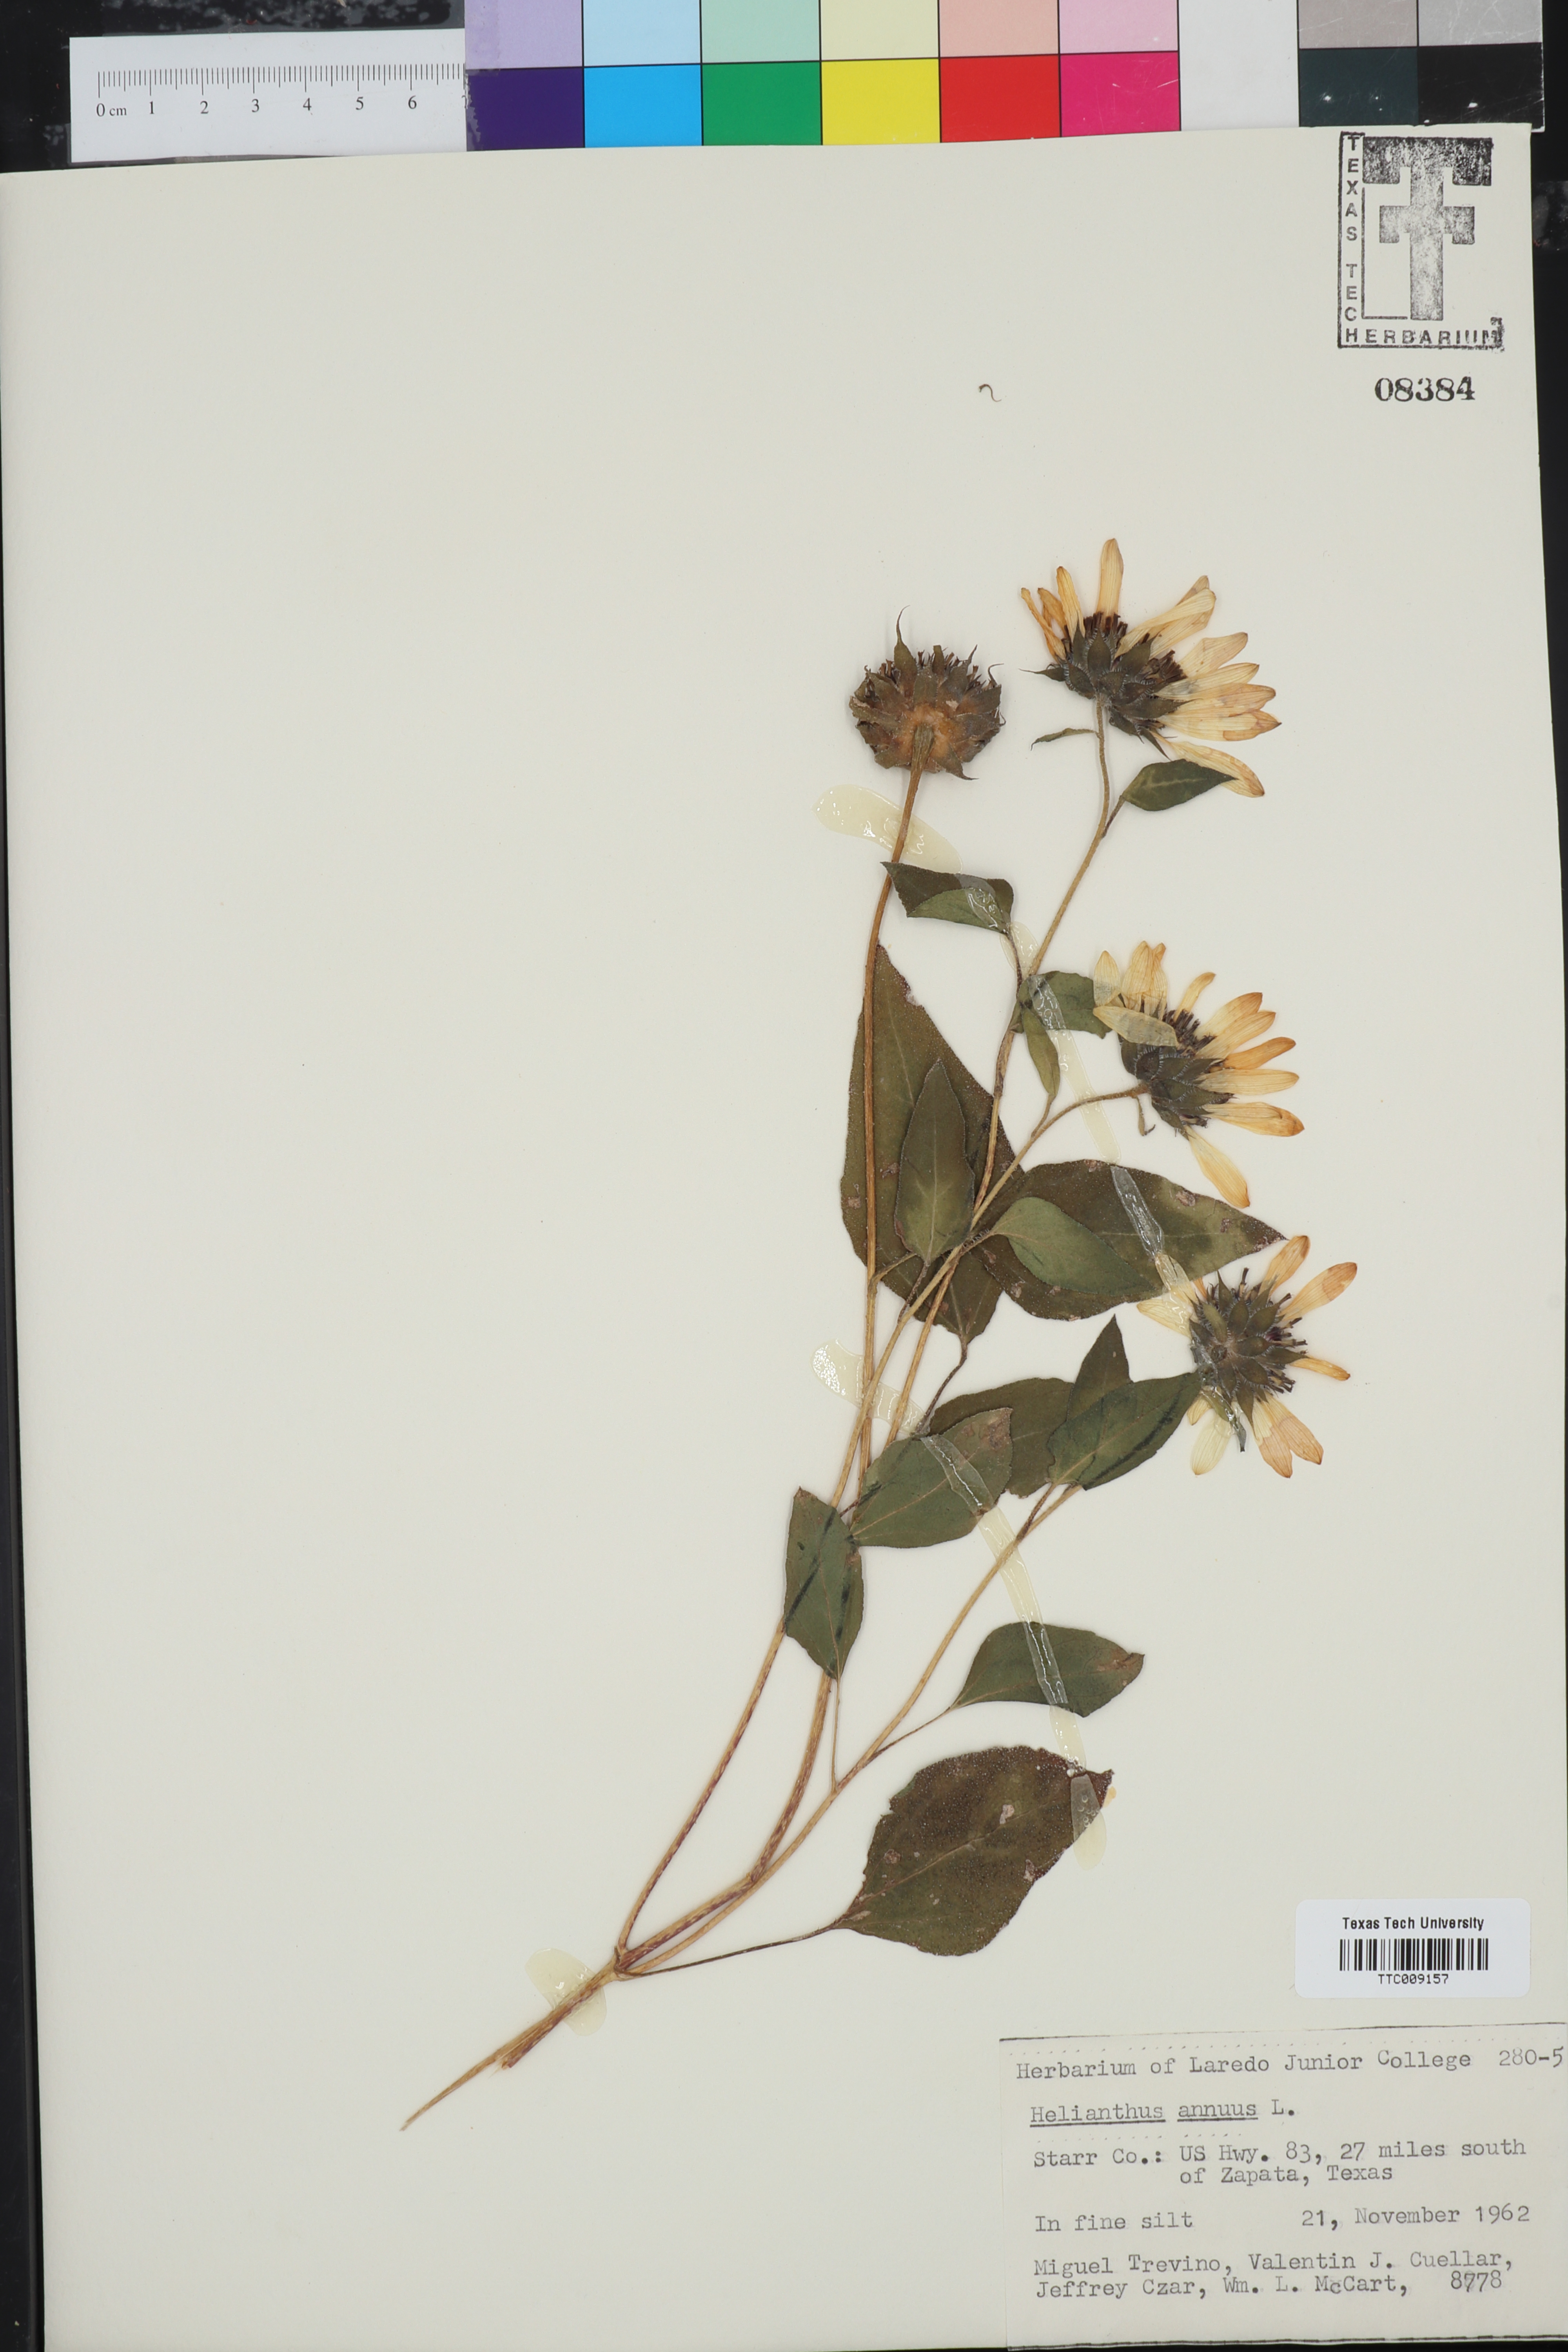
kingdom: Plantae
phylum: Tracheophyta
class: Magnoliopsida
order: Asterales
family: Asteraceae
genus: Helianthus
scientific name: Helianthus annuus
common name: Sunflower
